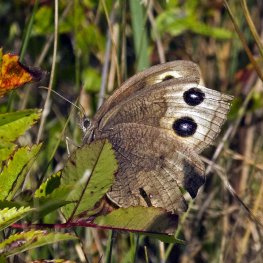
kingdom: Animalia
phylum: Arthropoda
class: Insecta
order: Lepidoptera
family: Nymphalidae
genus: Cercyonis
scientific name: Cercyonis pegala
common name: Common Wood-Nymph
